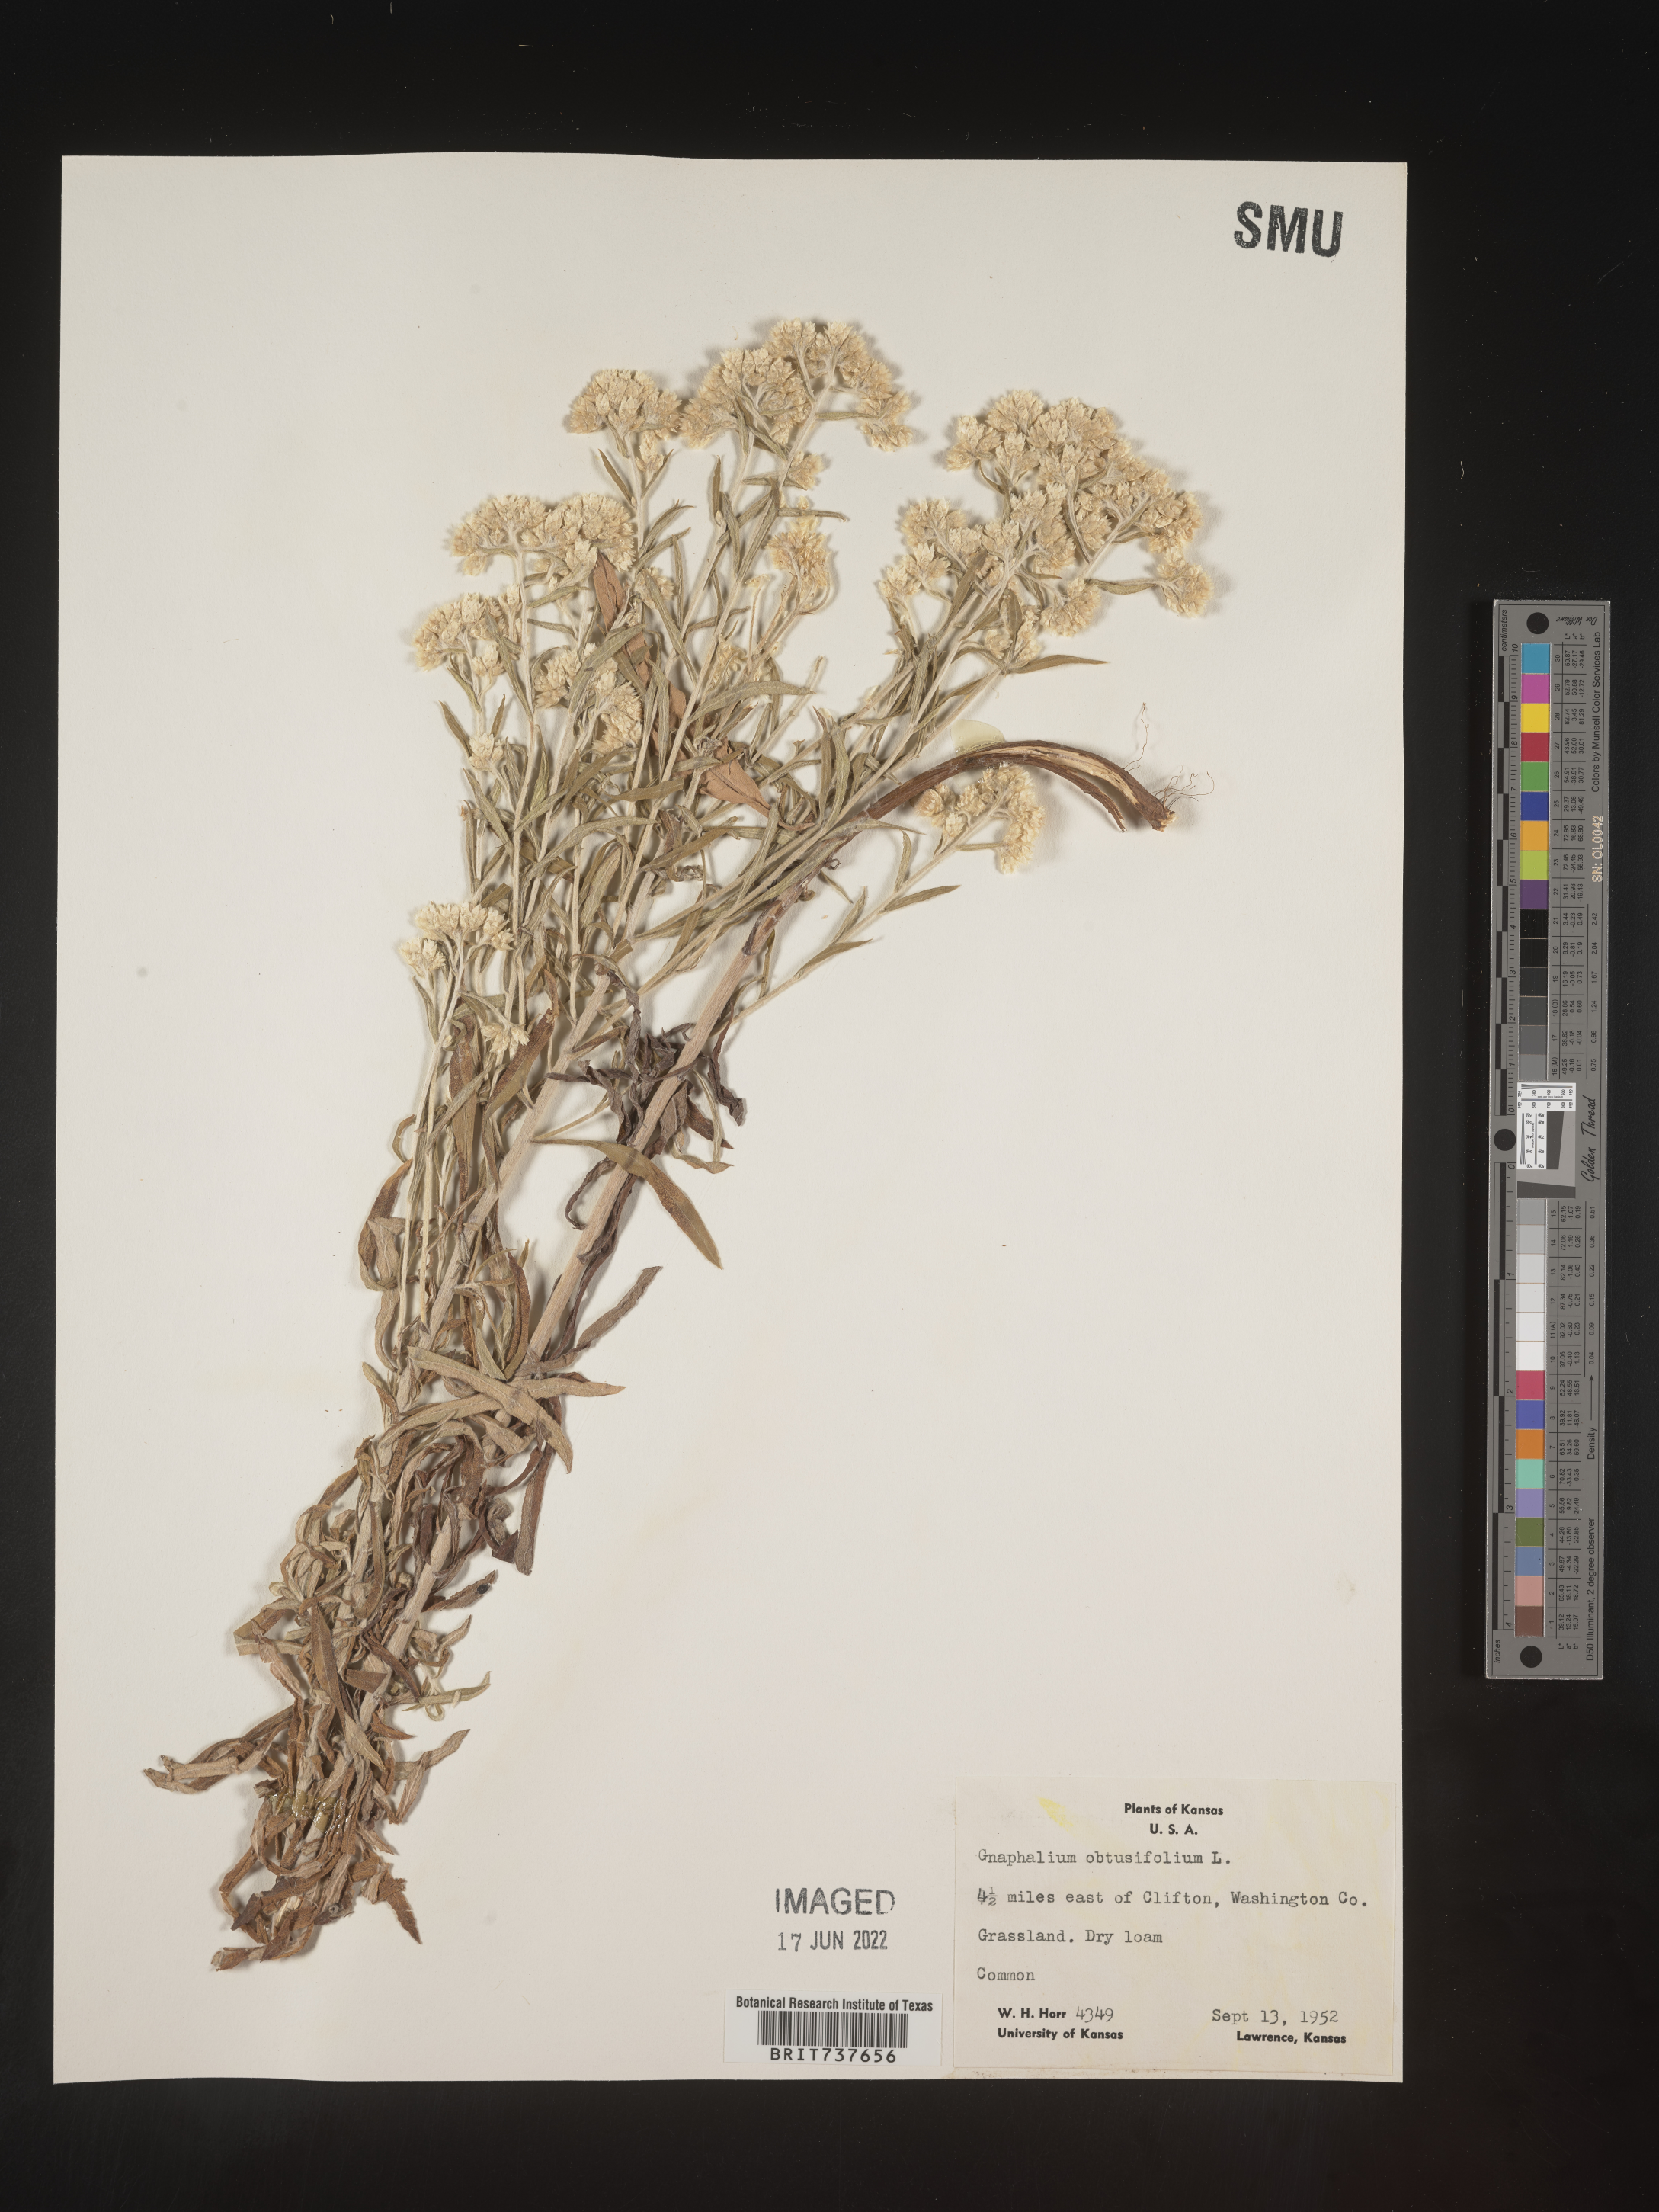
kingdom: Plantae
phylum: Tracheophyta
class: Magnoliopsida
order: Asterales
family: Asteraceae
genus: Pseudognaphalium
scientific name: Pseudognaphalium obtusifolium
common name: Eastern rabbit-tobacco
